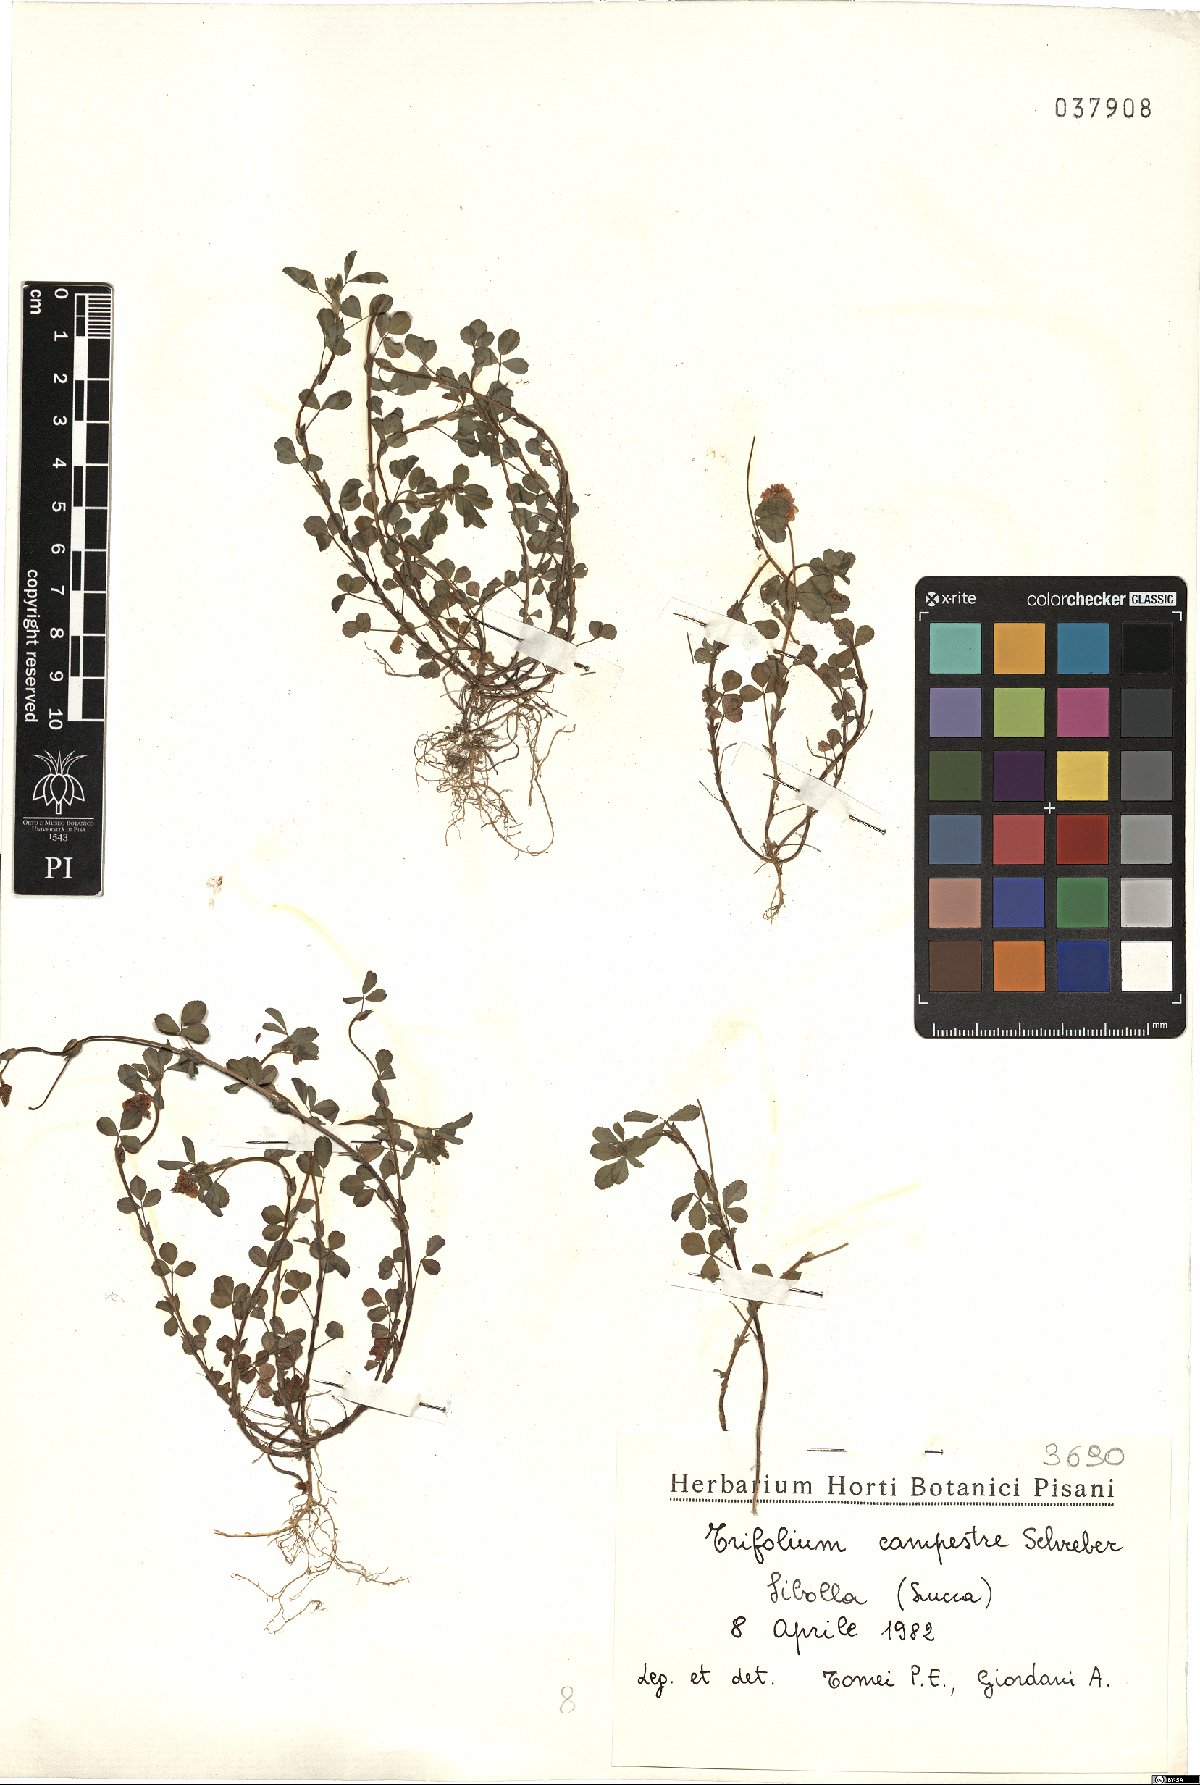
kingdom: Plantae
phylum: Tracheophyta
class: Magnoliopsida
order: Fabales
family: Fabaceae
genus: Trifolium
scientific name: Trifolium campestre
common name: Field clover
